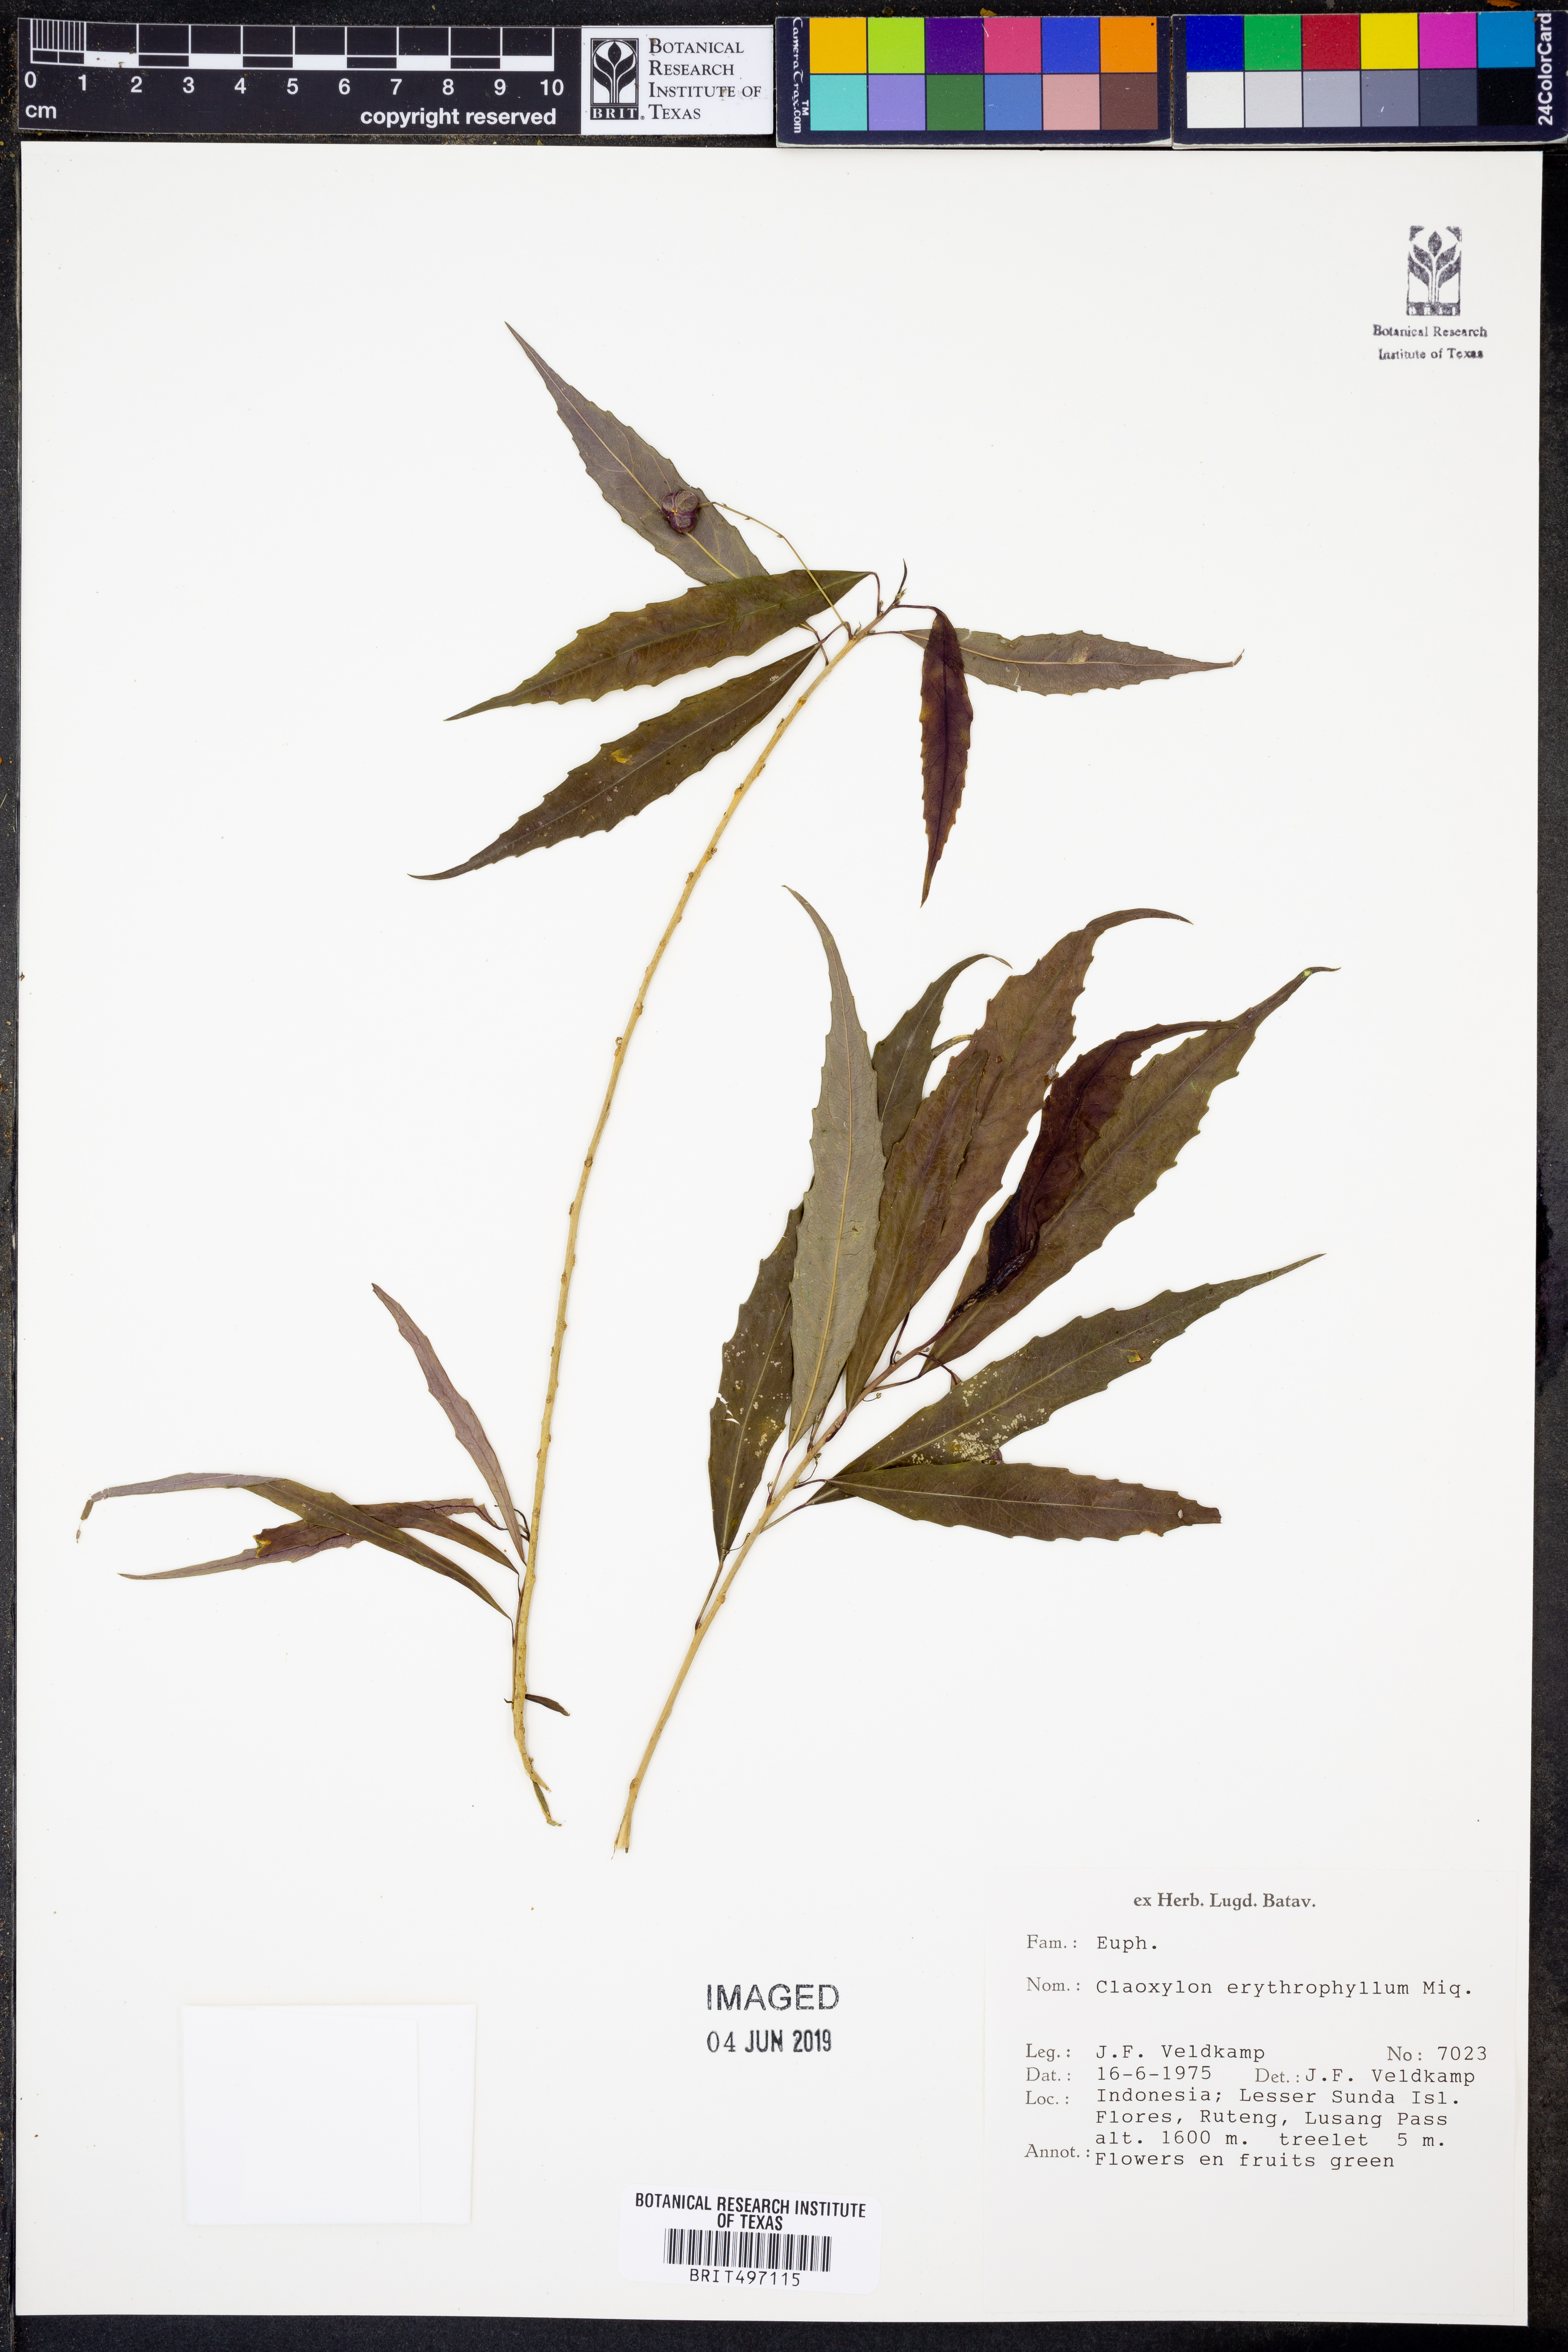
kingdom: Plantae
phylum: Tracheophyta
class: Magnoliopsida
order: Malpighiales
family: Euphorbiaceae
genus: Claoxylon
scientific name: Claoxylon erythrophyllum
